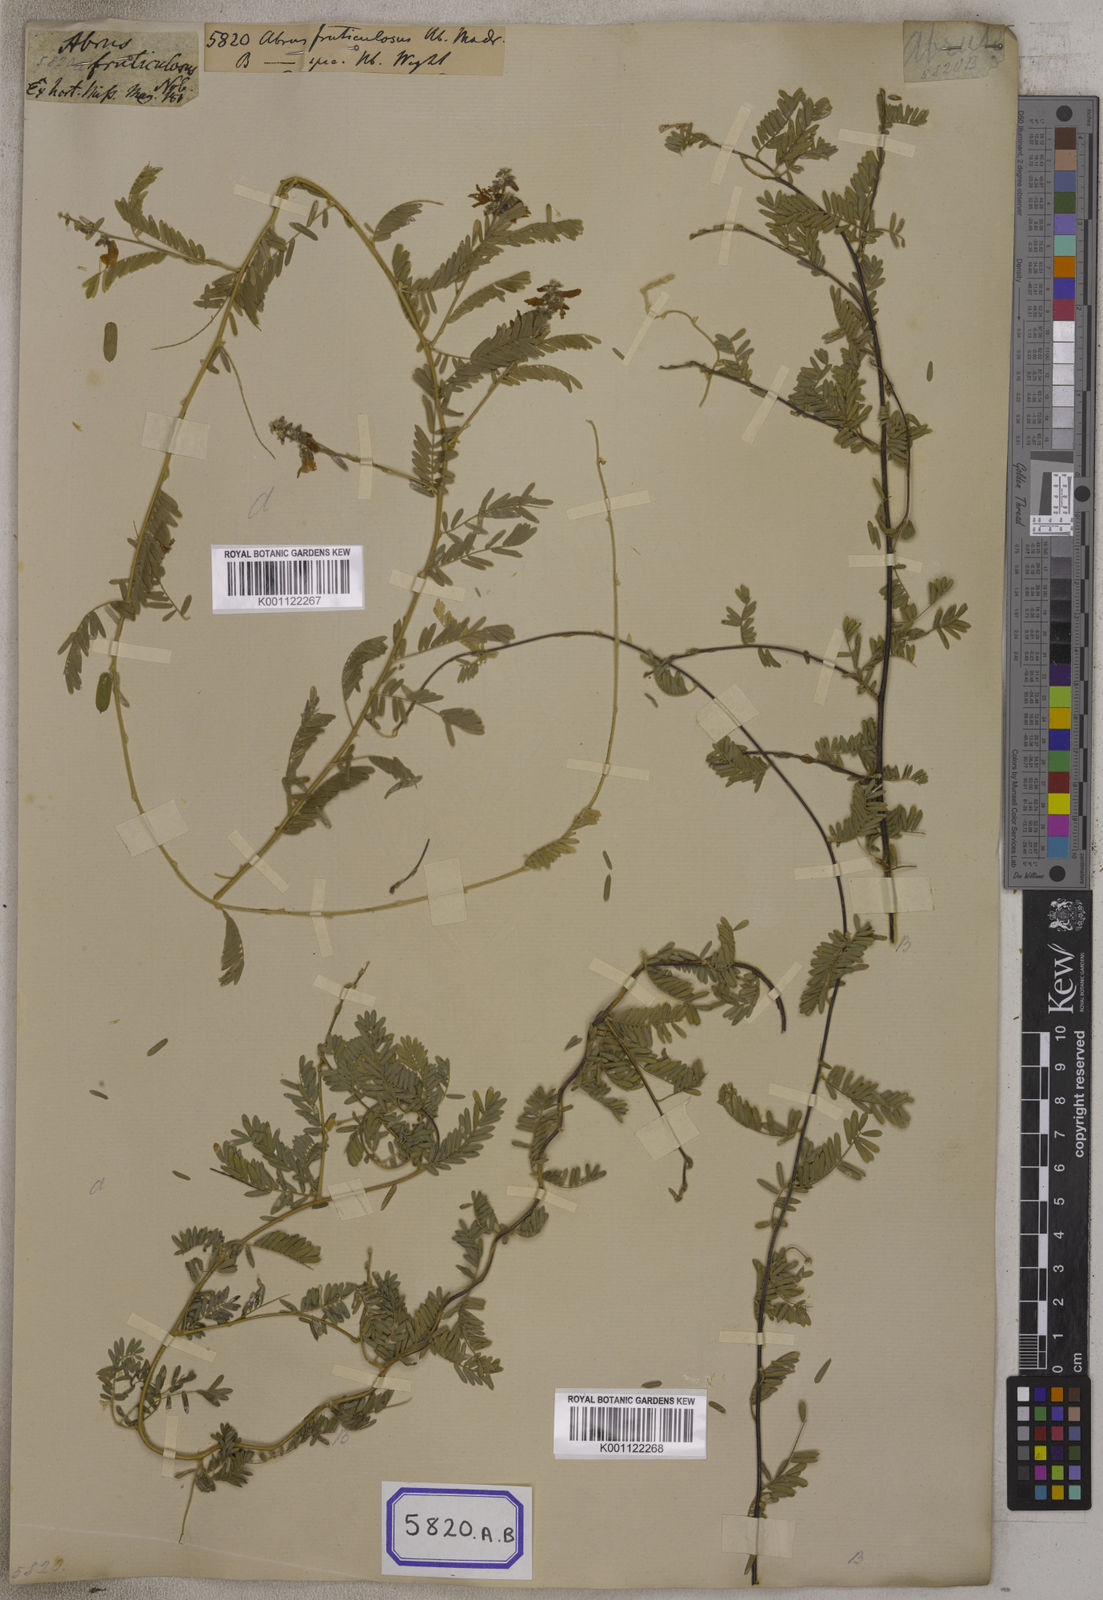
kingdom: Plantae
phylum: Tracheophyta
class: Magnoliopsida
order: Fabales
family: Fabaceae
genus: Abrus
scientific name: Abrus
